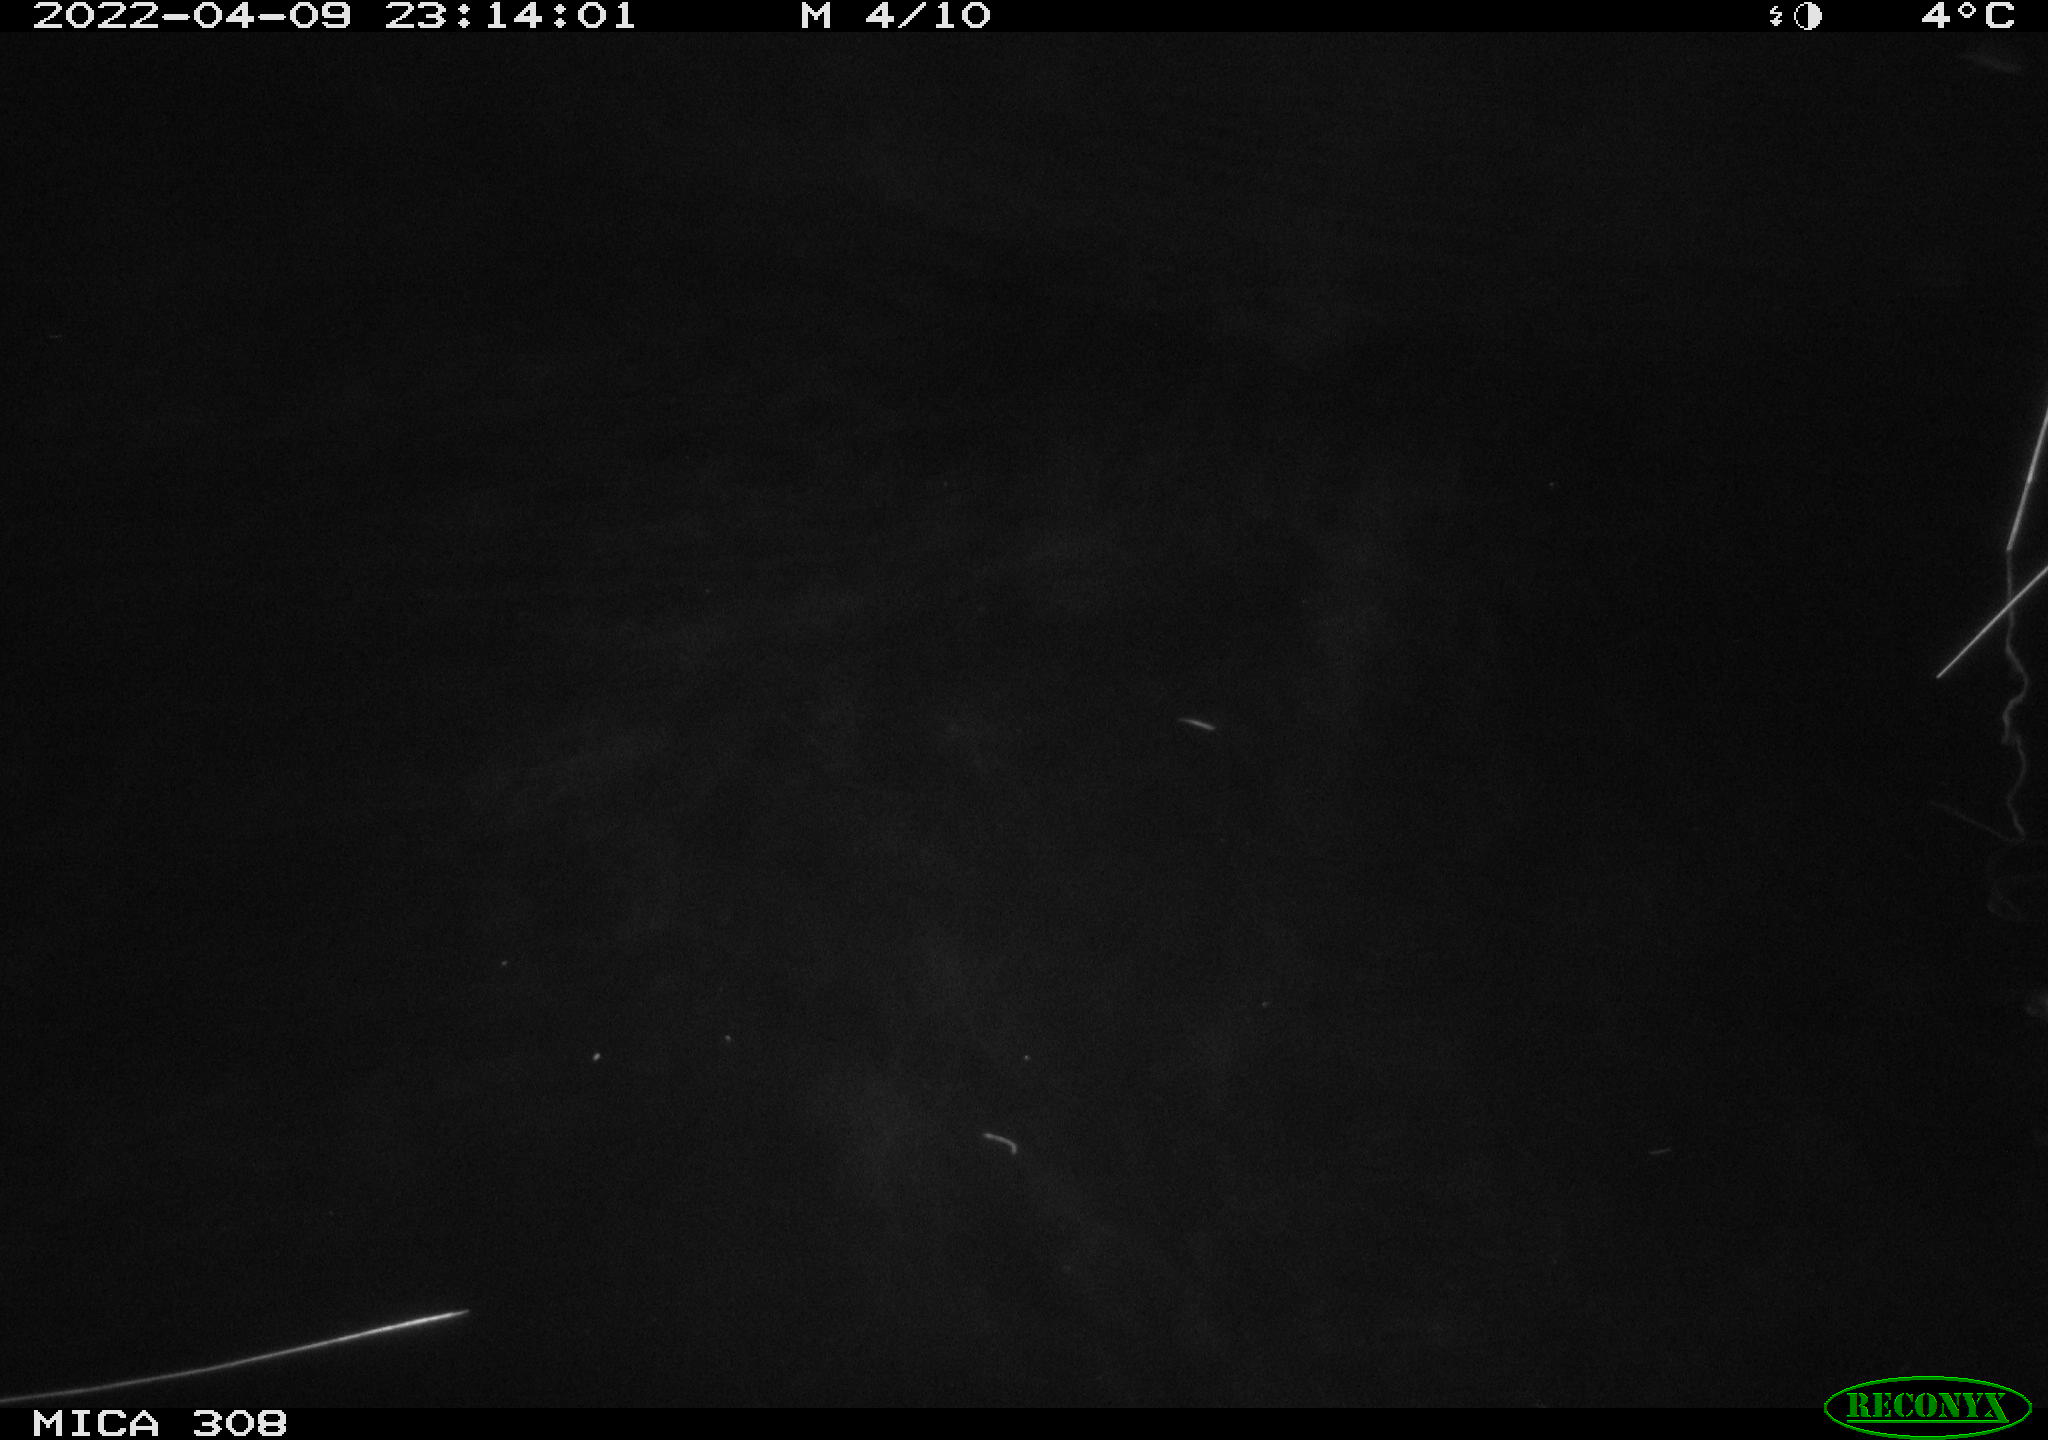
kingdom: Animalia
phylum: Chordata
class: Mammalia
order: Rodentia
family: Cricetidae
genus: Ondatra
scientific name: Ondatra zibethicus
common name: Muskrat
